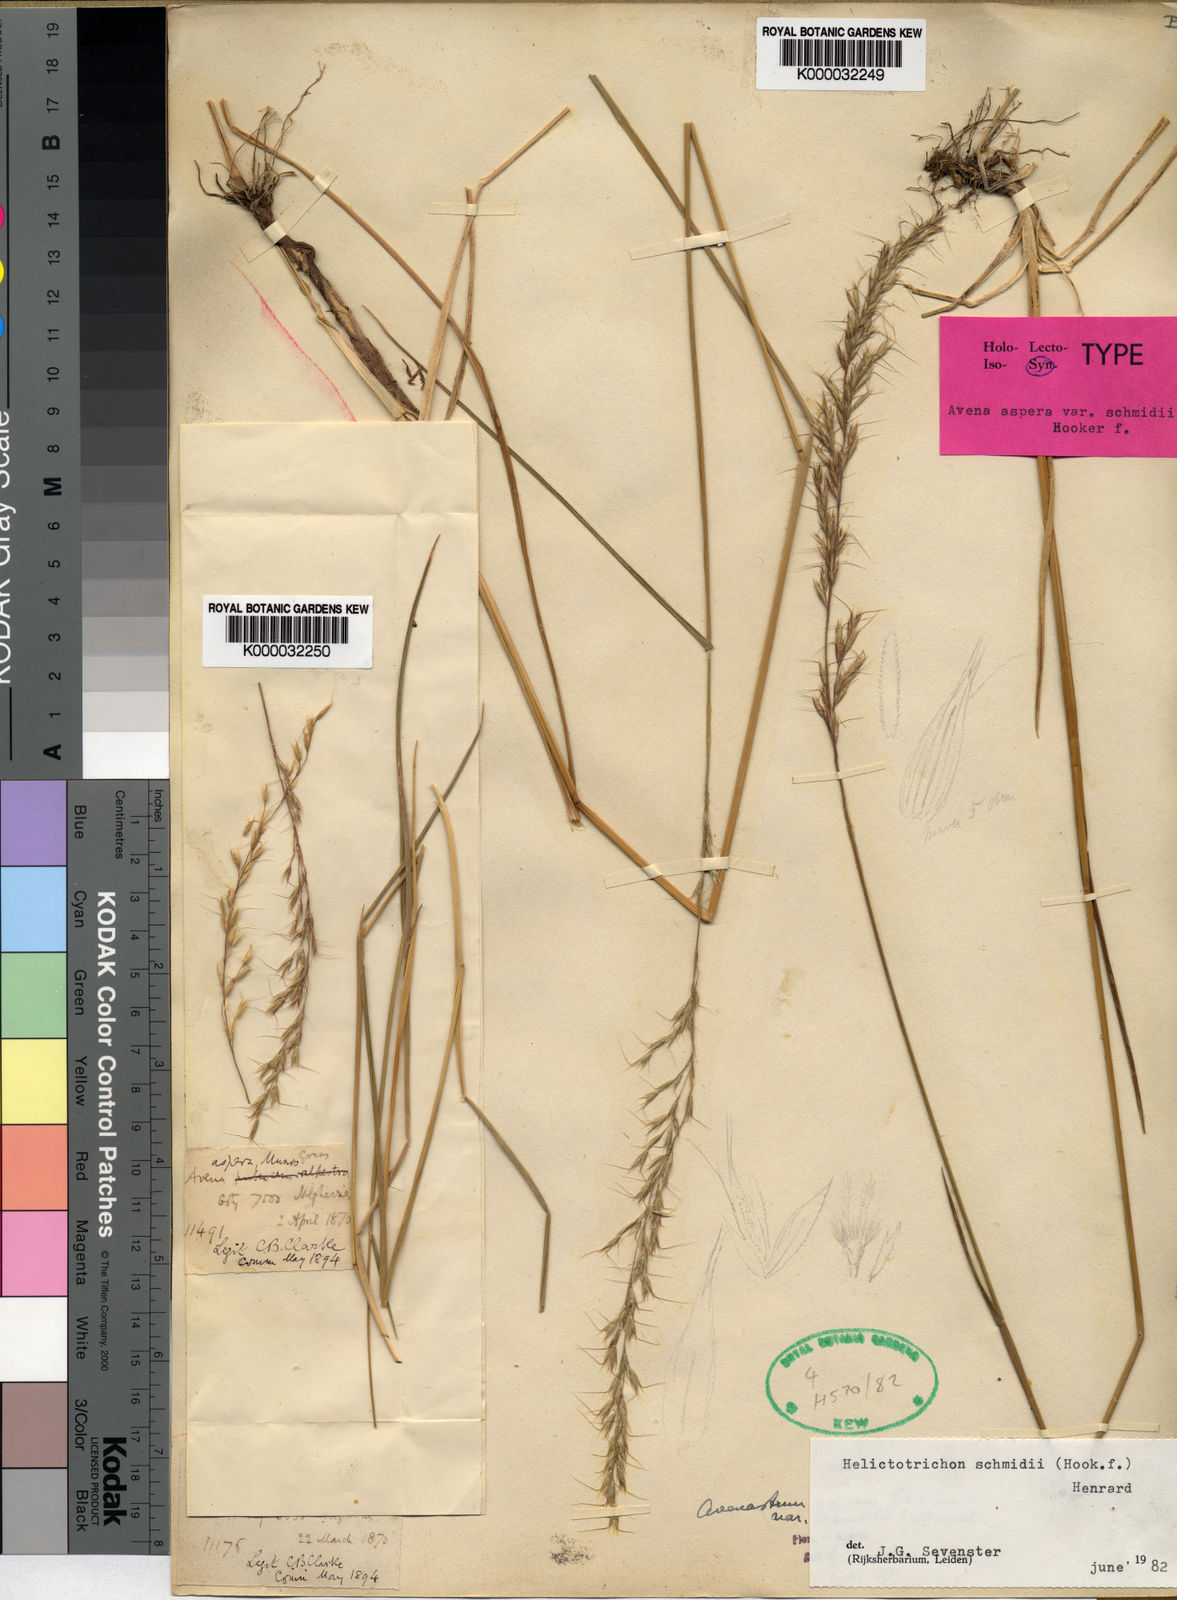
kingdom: Plantae
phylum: Tracheophyta
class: Liliopsida
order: Poales
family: Poaceae
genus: Helictotrichon
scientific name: Helictotrichon
